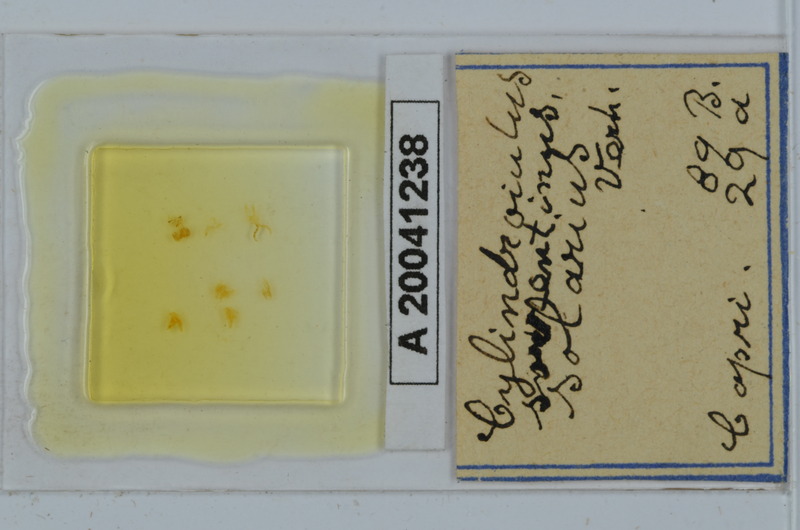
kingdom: Animalia
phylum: Arthropoda
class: Diplopoda
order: Julida
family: Julidae
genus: Cylindroiulus
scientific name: Cylindroiulus sorrentinus
